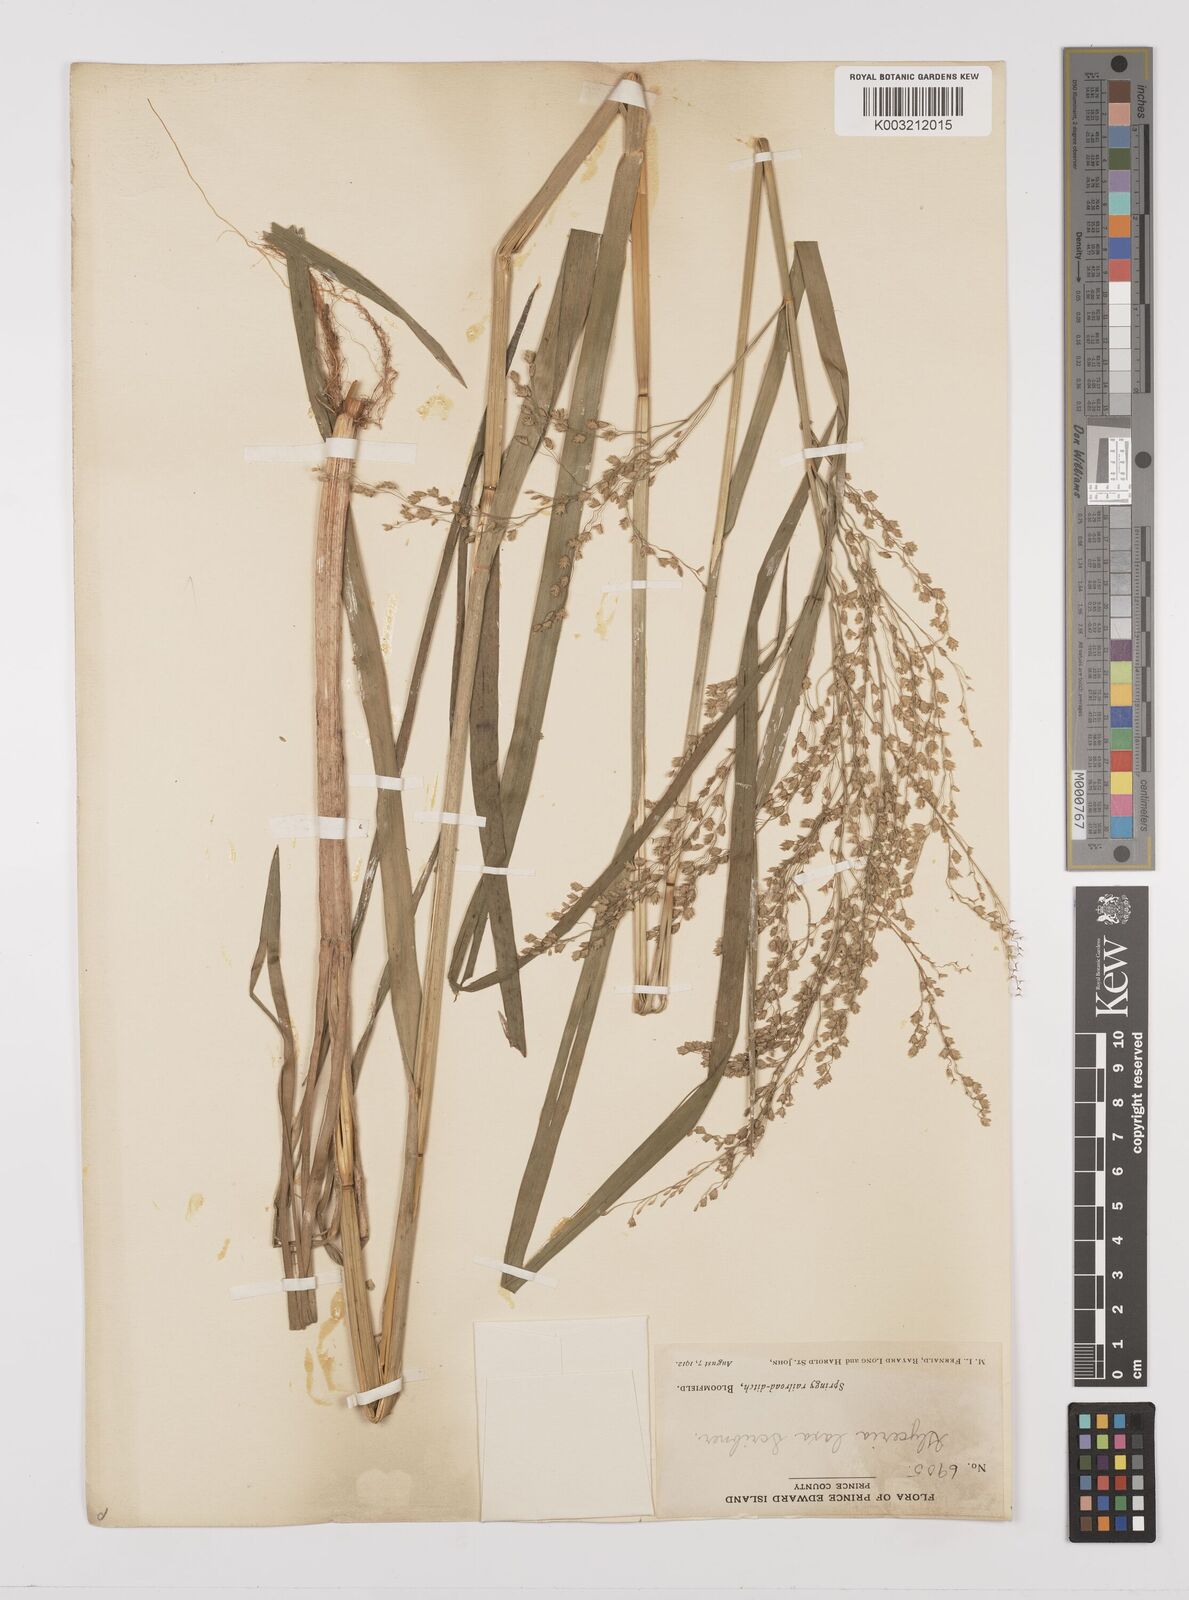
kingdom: Plantae
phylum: Tracheophyta
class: Liliopsida
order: Poales
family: Poaceae
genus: Glyceria
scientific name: Glyceria canadensis
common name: Canada mannagrass
